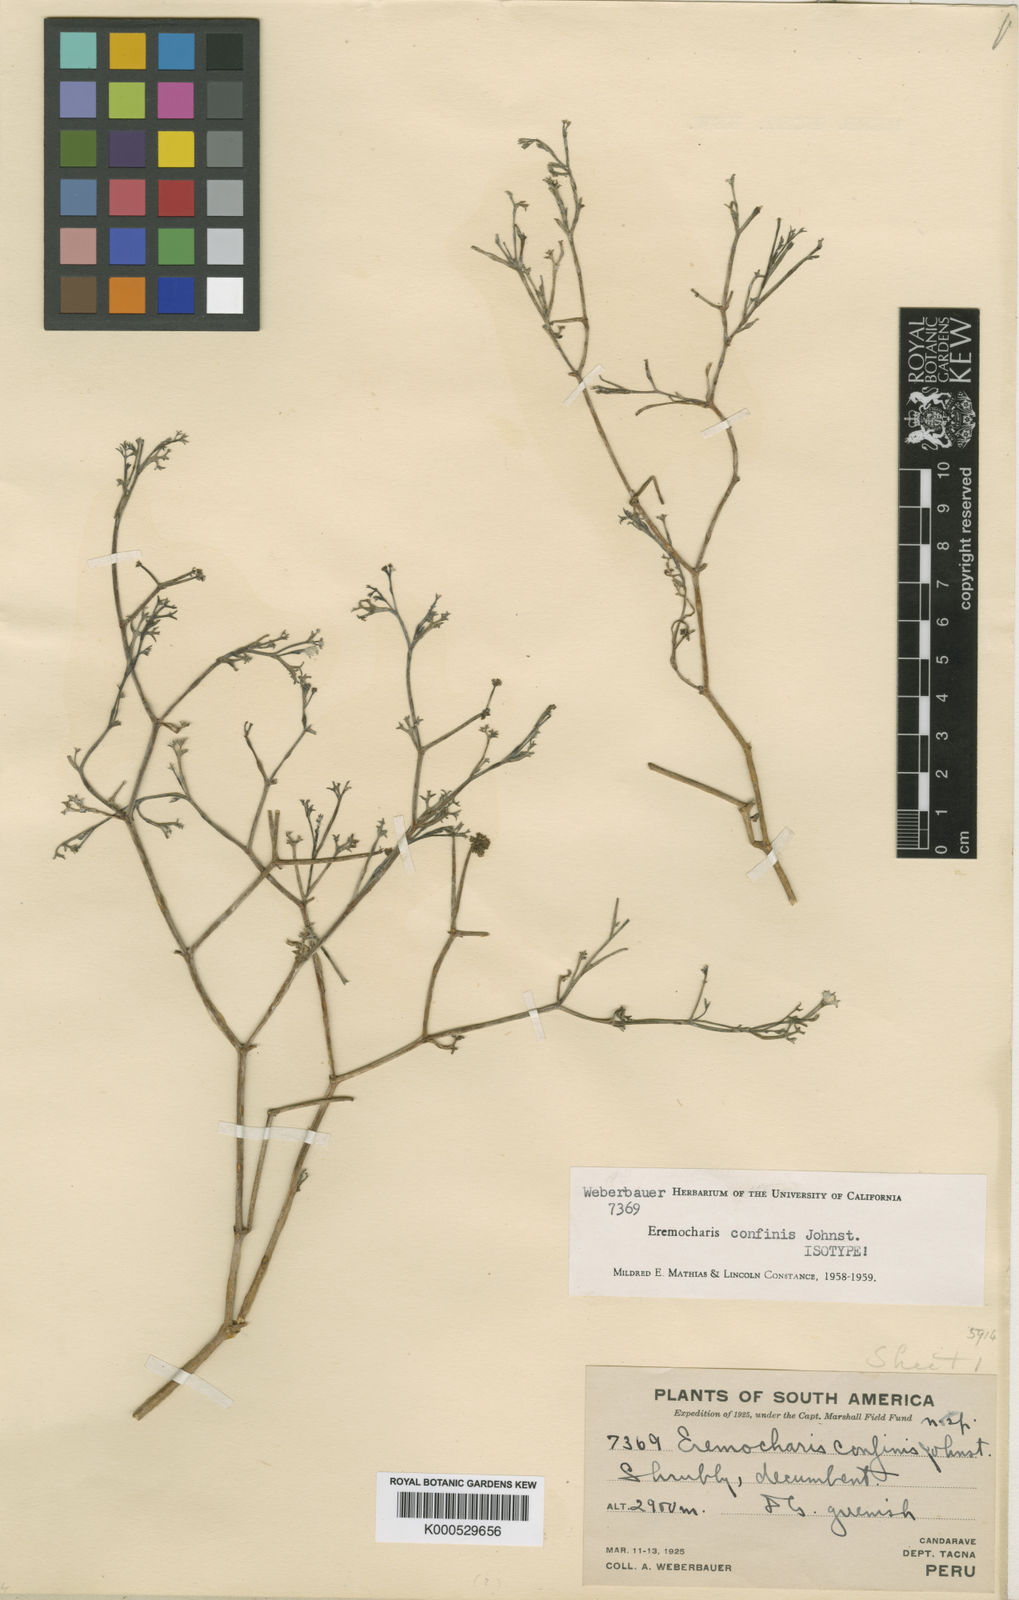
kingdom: Plantae
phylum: Tracheophyta
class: Magnoliopsida
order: Apiales
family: Apiaceae
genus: Eremocharis
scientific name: Eremocharis confinis
